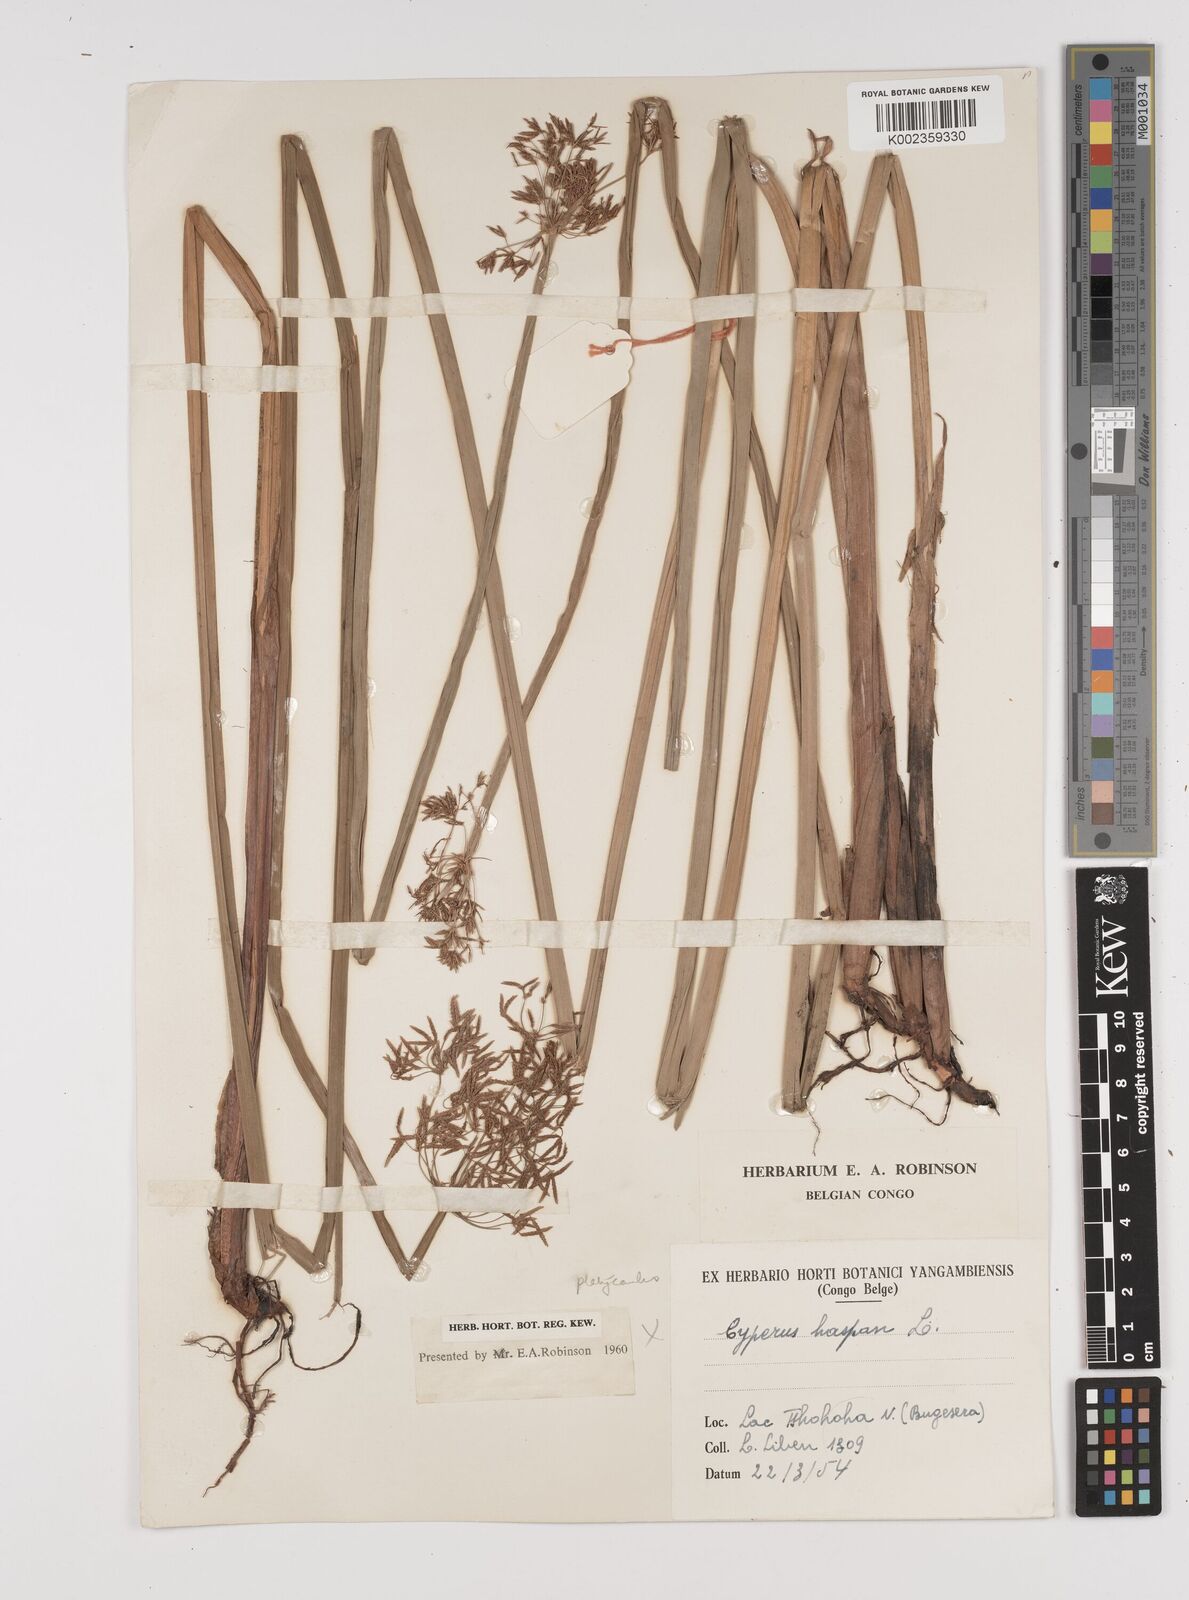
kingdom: Plantae
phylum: Tracheophyta
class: Liliopsida
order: Poales
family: Cyperaceae
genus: Cyperus
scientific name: Cyperus platycaulis
